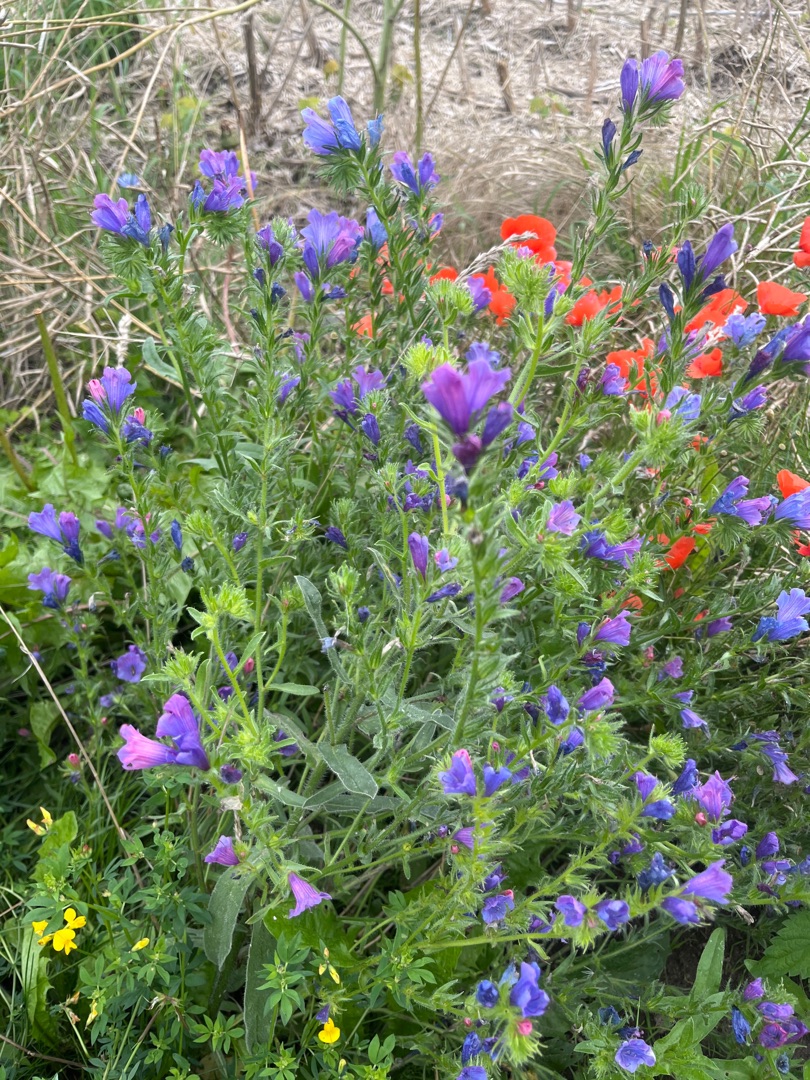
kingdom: Plantae
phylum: Tracheophyta
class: Magnoliopsida
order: Boraginales
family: Boraginaceae
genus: Echium
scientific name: Echium plantagineum
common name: Vejbred-slangehoved
